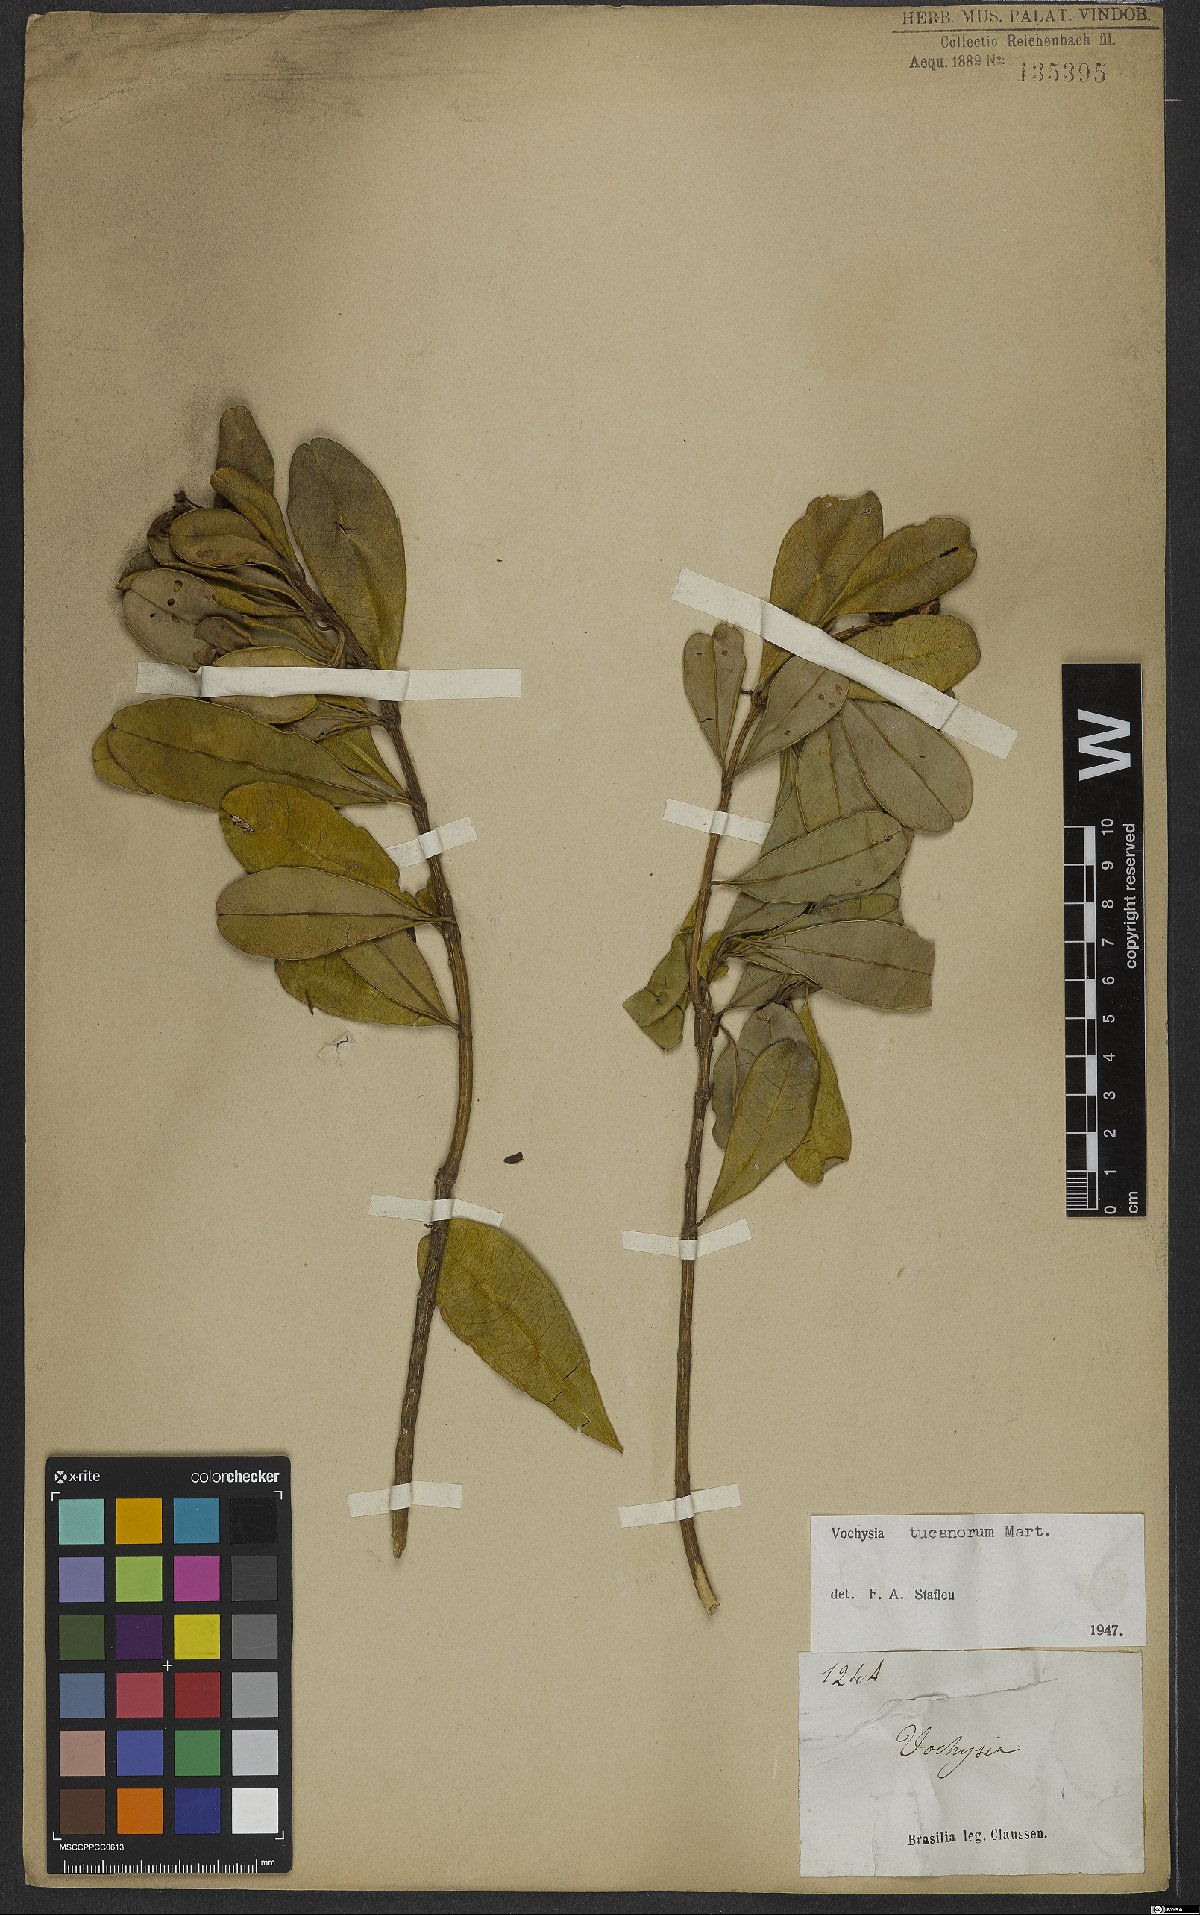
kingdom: Plantae
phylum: Tracheophyta
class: Magnoliopsida
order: Myrtales
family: Vochysiaceae
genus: Vochysia
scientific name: Vochysia tucanorum
